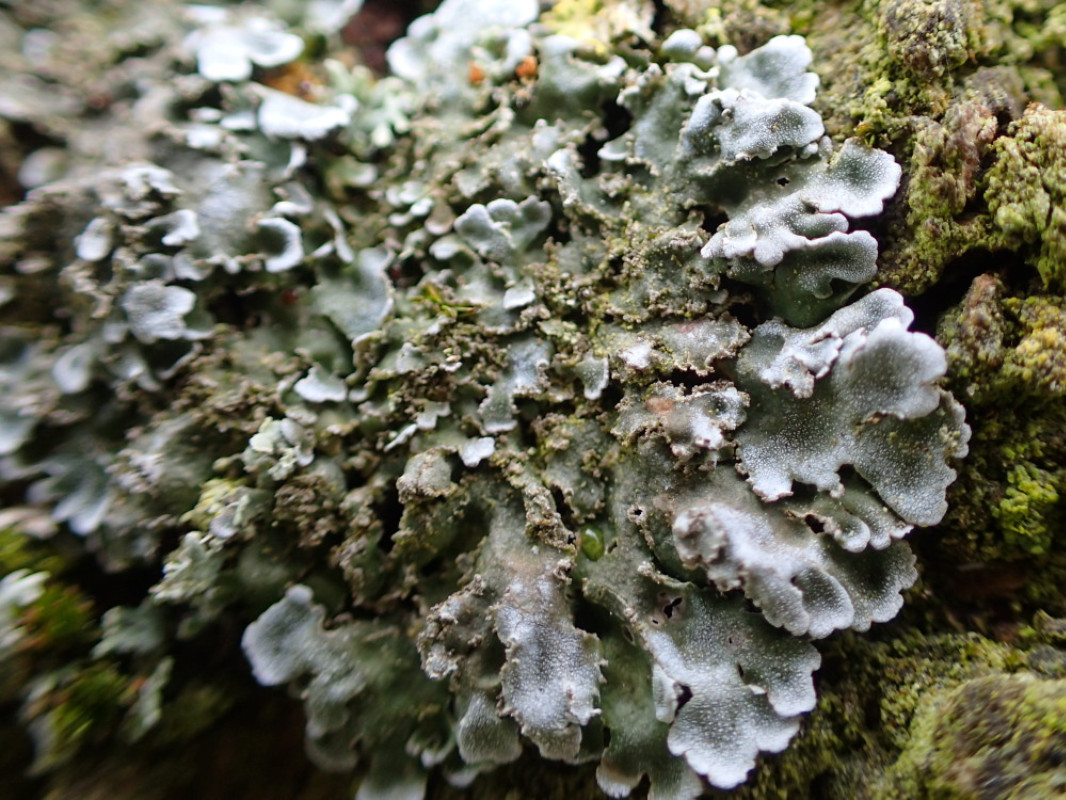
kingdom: Fungi
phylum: Ascomycota
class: Lecanoromycetes
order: Caliciales
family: Physciaceae
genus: Physconia
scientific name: Physconia perisidiosa
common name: liden dugrosetlav
